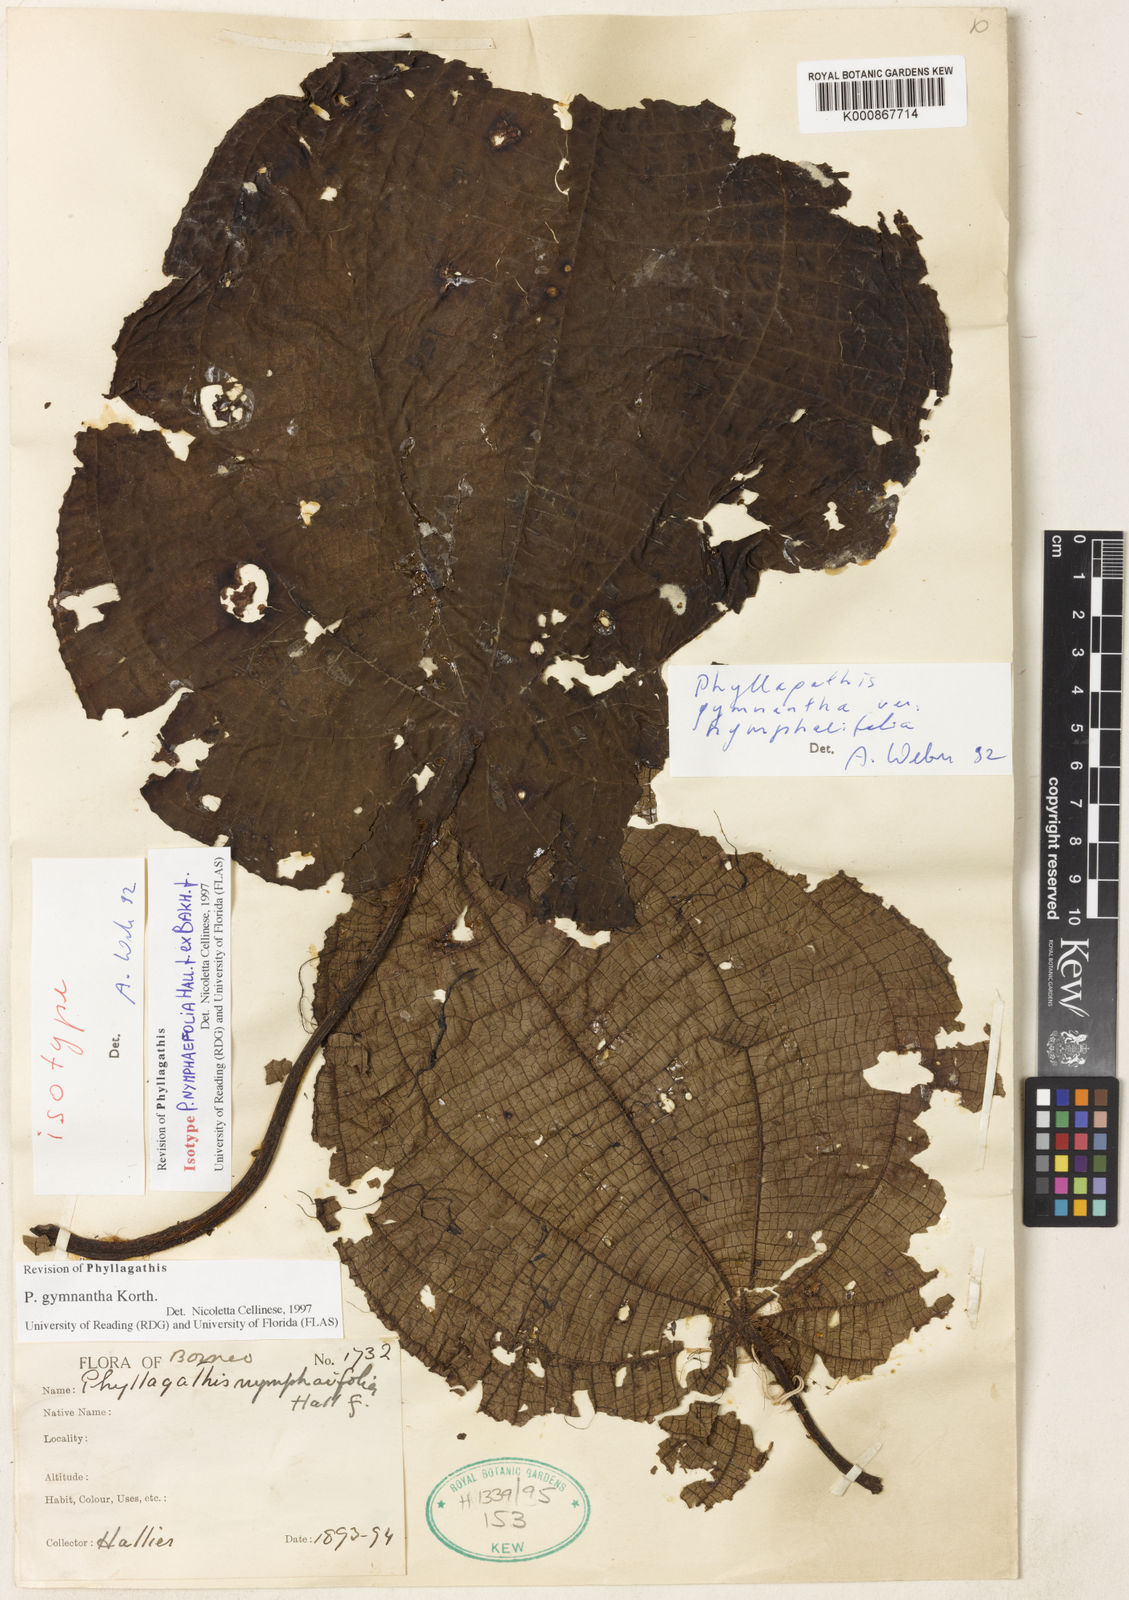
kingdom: Plantae
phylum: Tracheophyta
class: Magnoliopsida
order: Myrtales
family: Melastomataceae
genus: Phyllagathis
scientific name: Phyllagathis gymnantha
